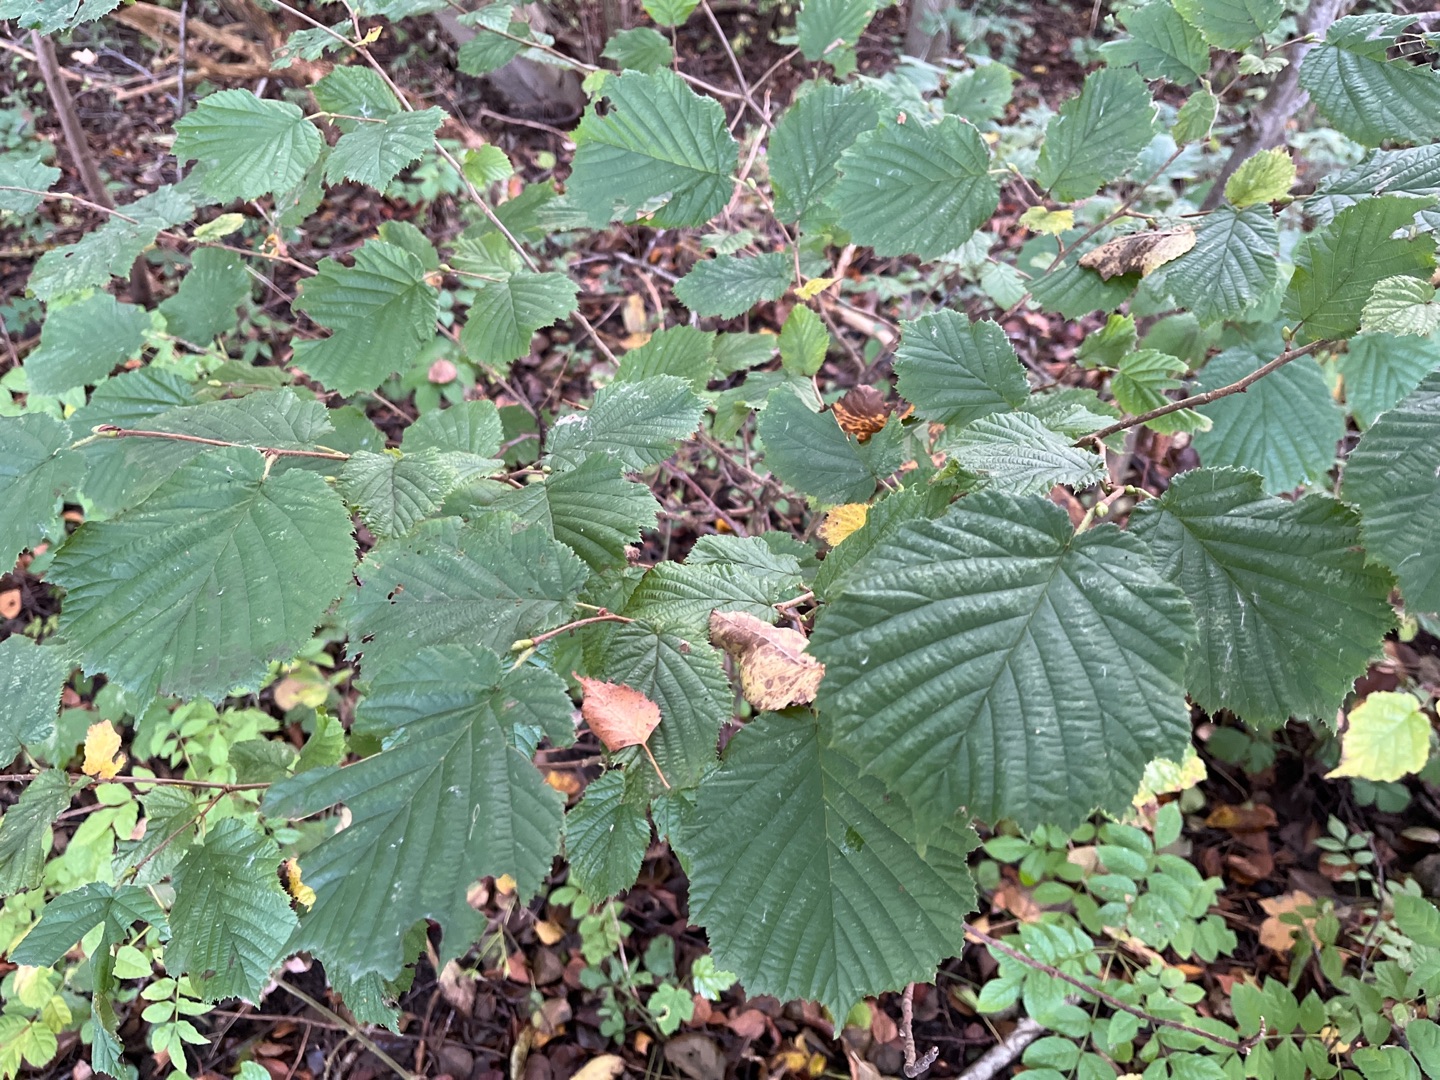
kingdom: Plantae
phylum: Tracheophyta
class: Magnoliopsida
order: Fagales
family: Betulaceae
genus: Corylus
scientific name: Corylus avellana
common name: Hassel
